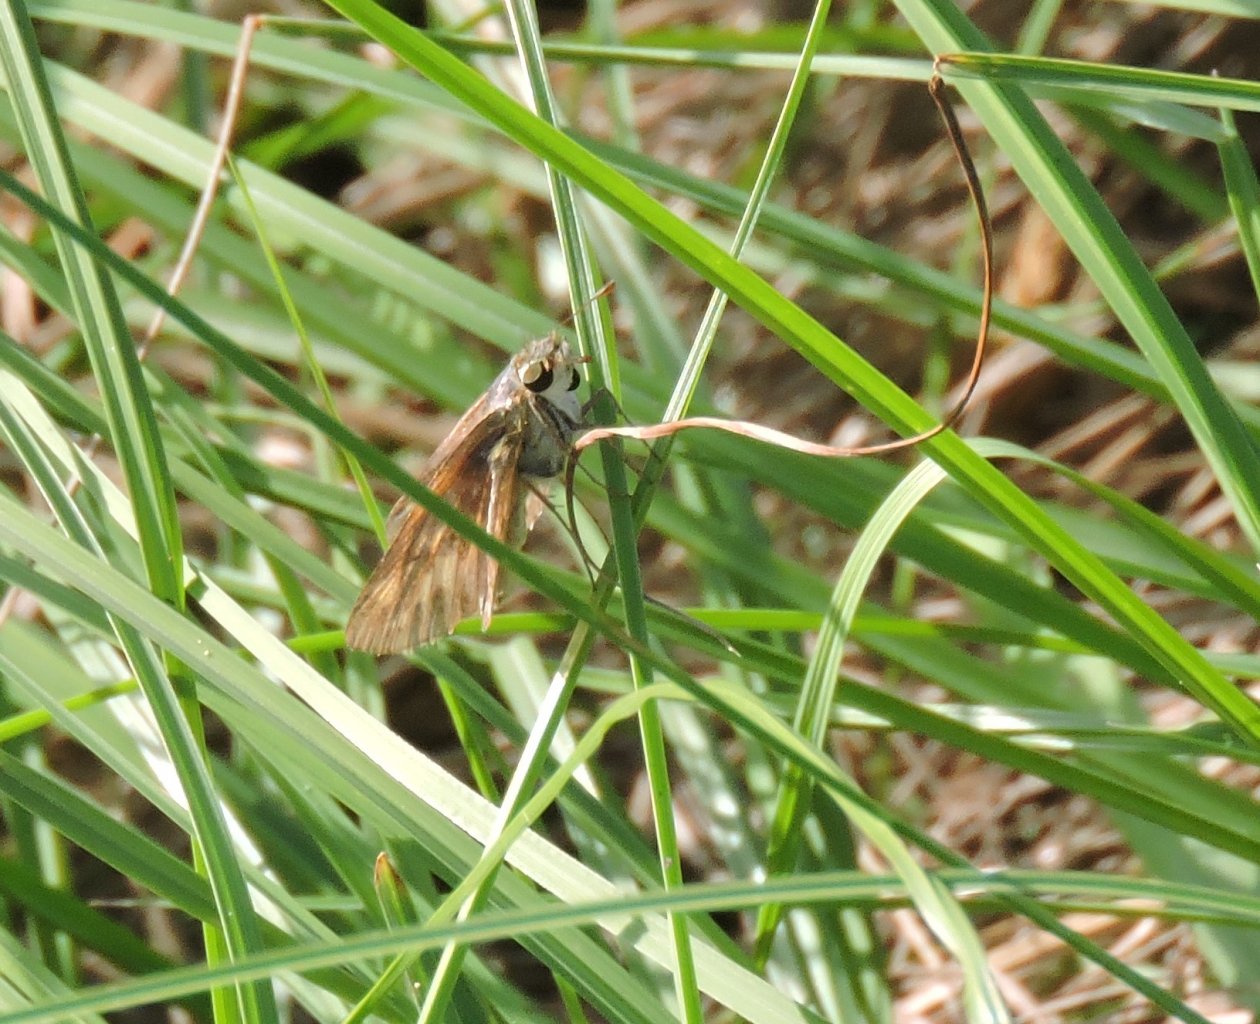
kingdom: Animalia
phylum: Arthropoda
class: Insecta
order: Lepidoptera
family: Hesperiidae
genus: Panoquina
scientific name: Panoquina ocola
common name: Ocola Skipper
